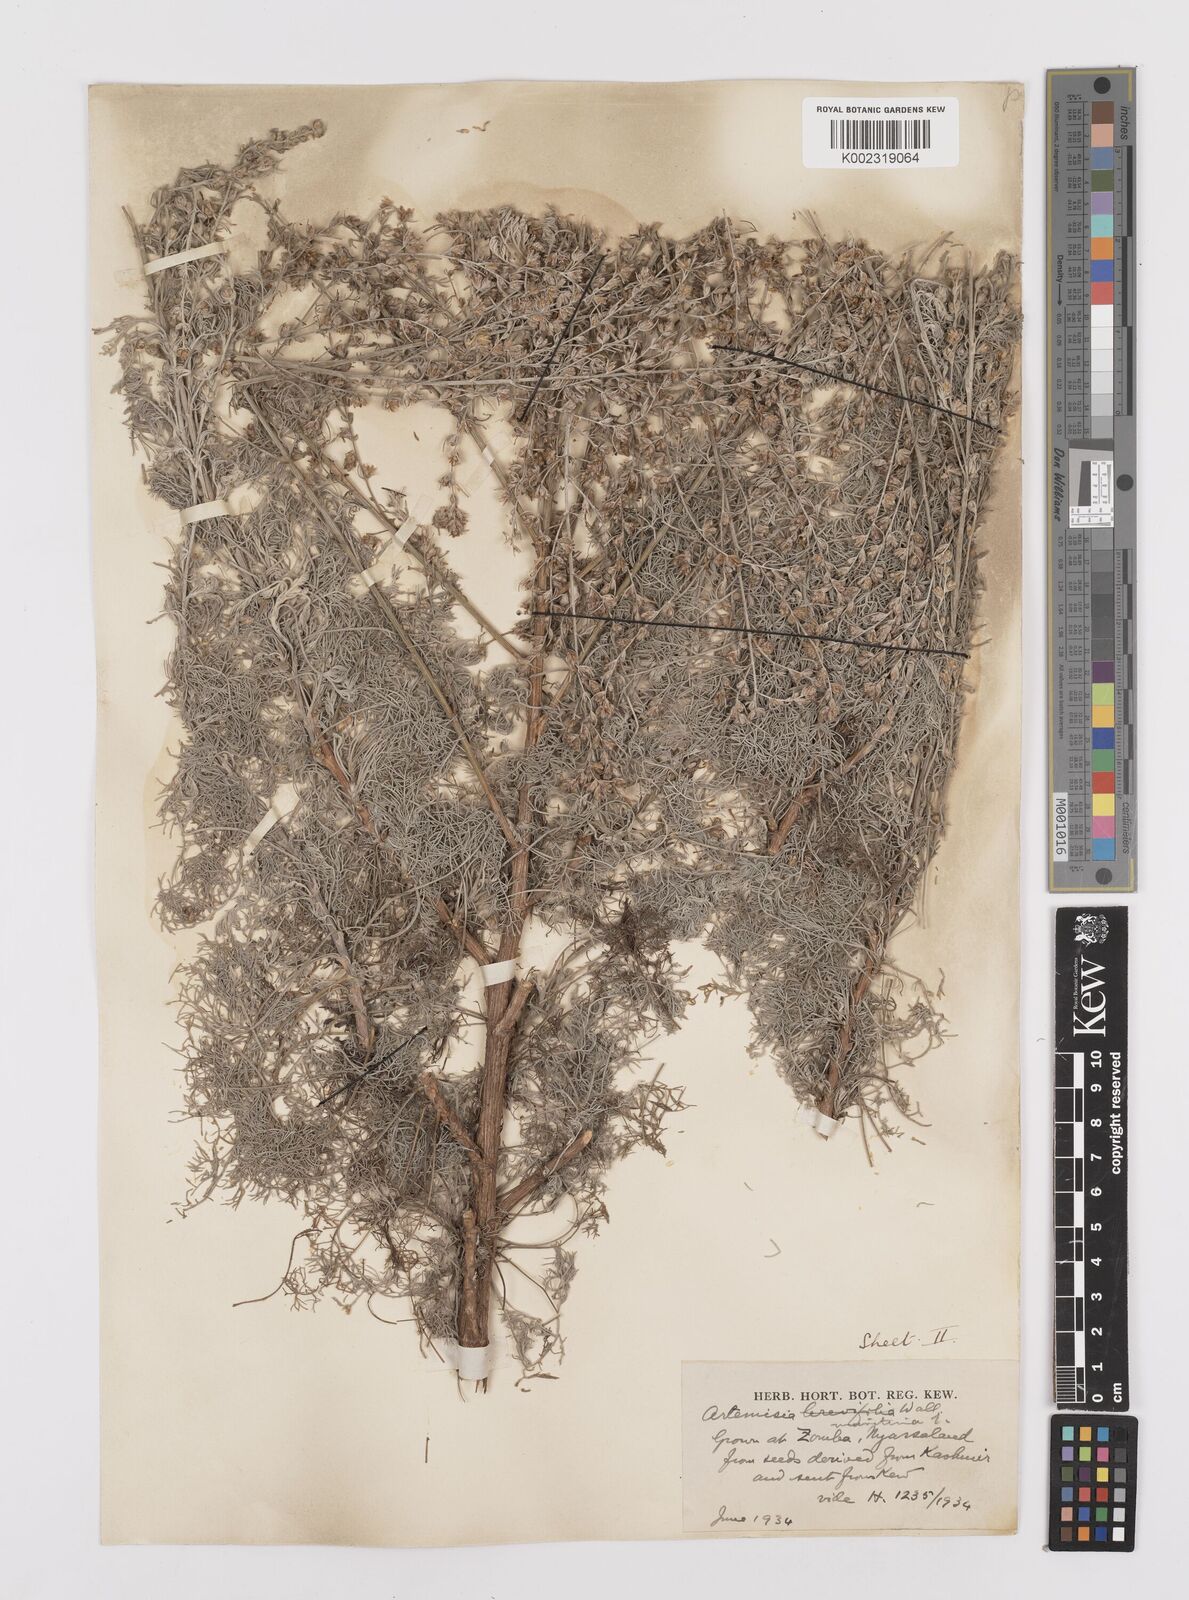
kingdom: Plantae
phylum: Tracheophyta
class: Magnoliopsida
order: Asterales
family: Asteraceae
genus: Artemisia
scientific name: Artemisia brevifolia
